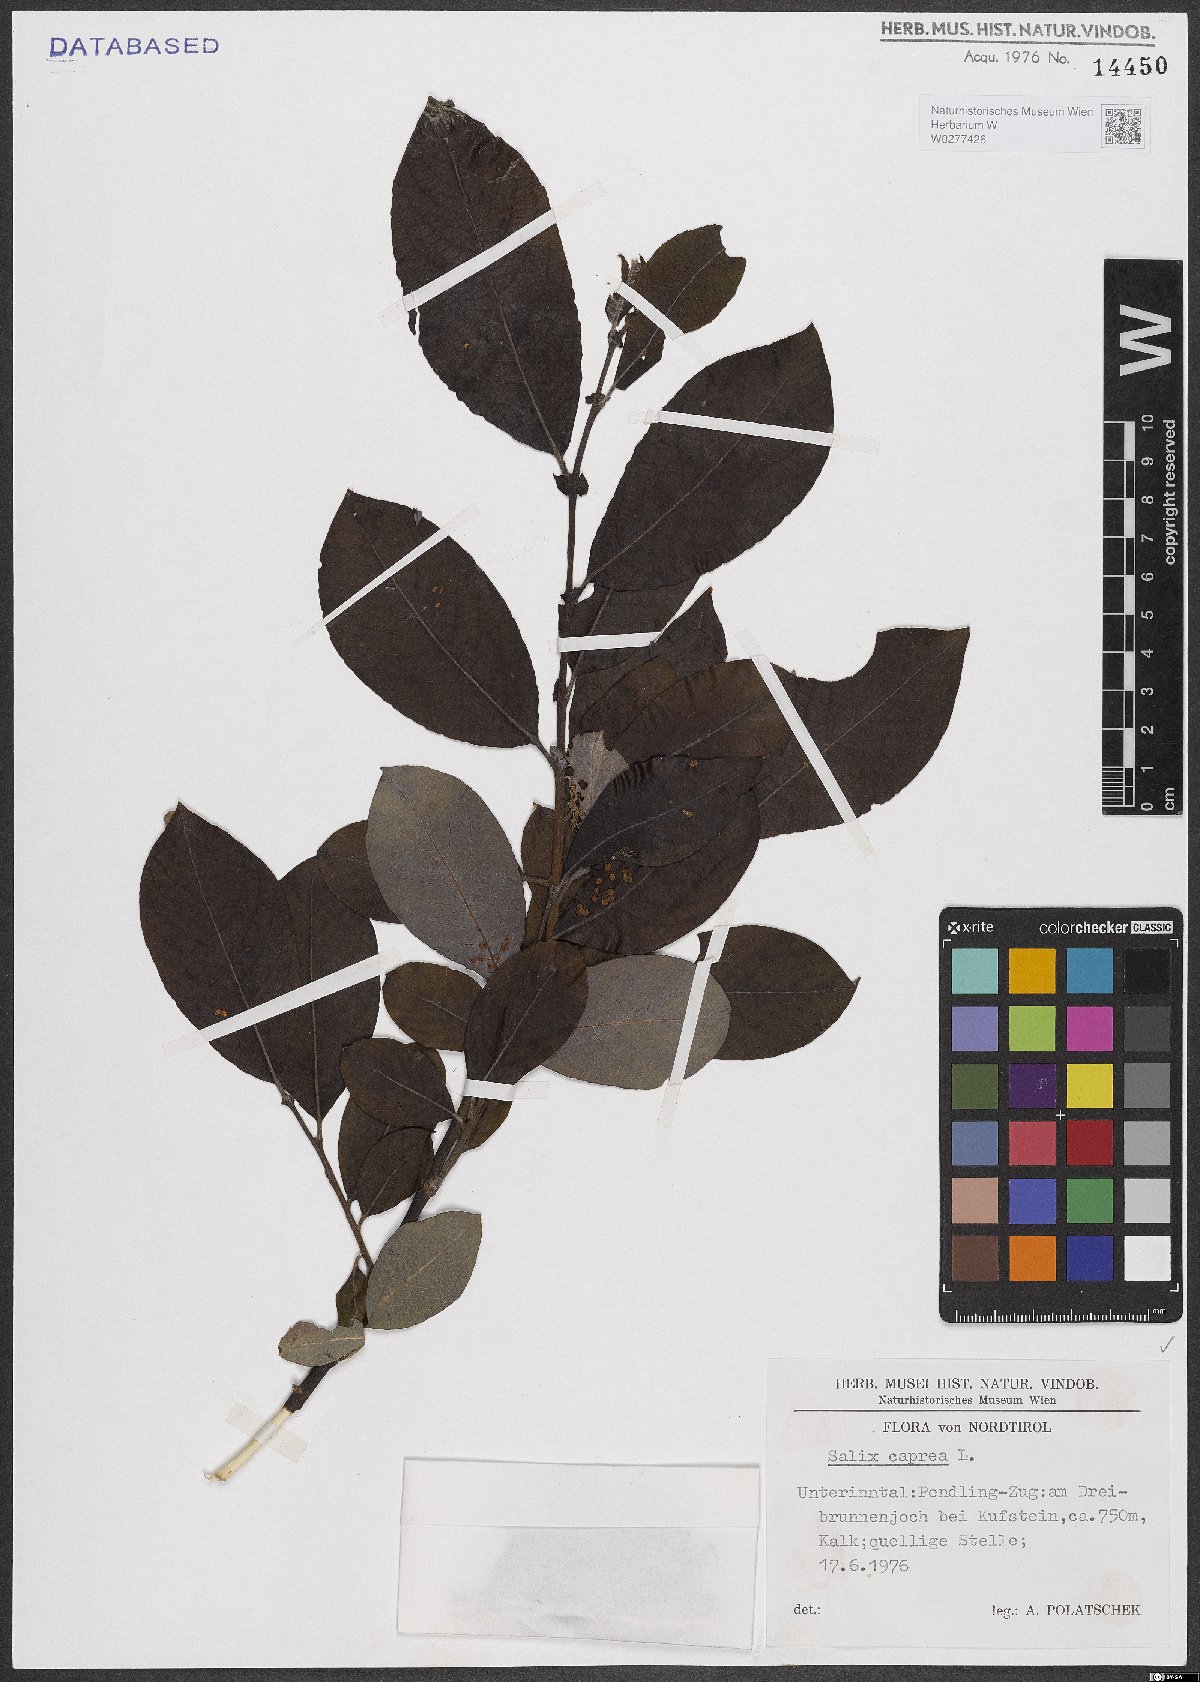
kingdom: Plantae
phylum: Tracheophyta
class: Magnoliopsida
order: Malpighiales
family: Salicaceae
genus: Salix
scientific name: Salix caprea
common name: Goat willow
